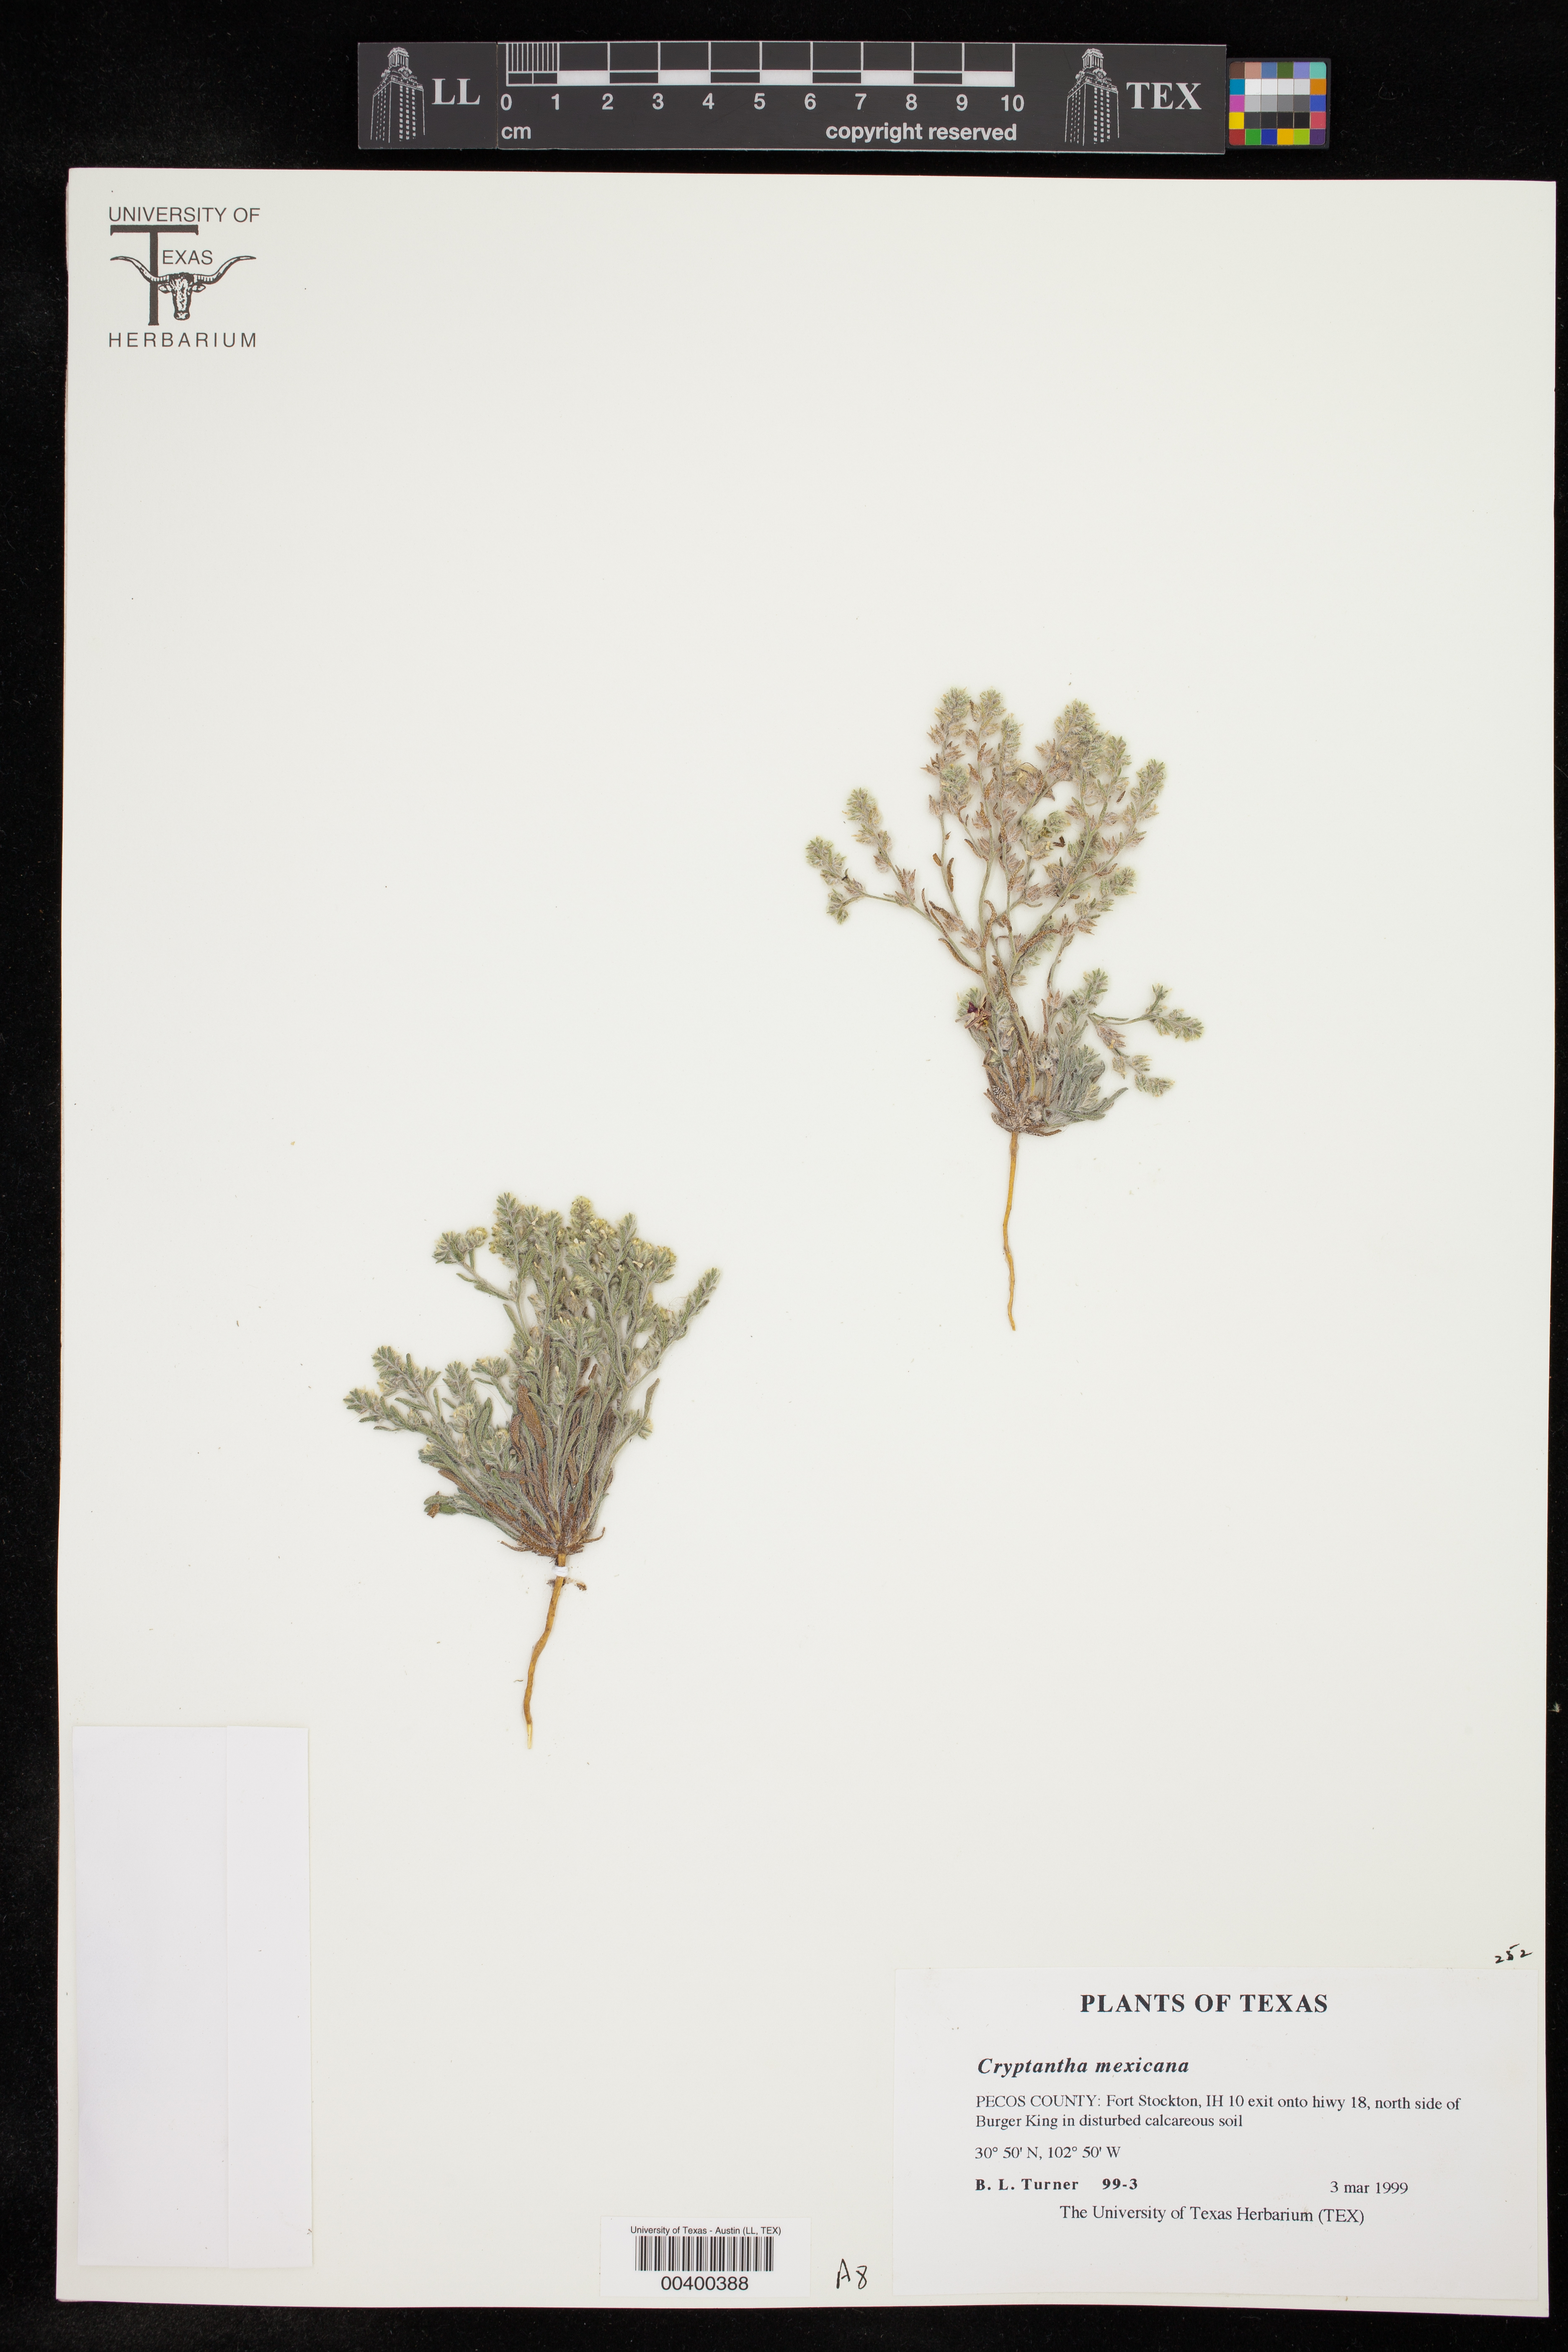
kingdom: Plantae
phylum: Tracheophyta
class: Magnoliopsida
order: Boraginales
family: Boraginaceae
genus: Johnstonella
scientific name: Johnstonella mexicana
